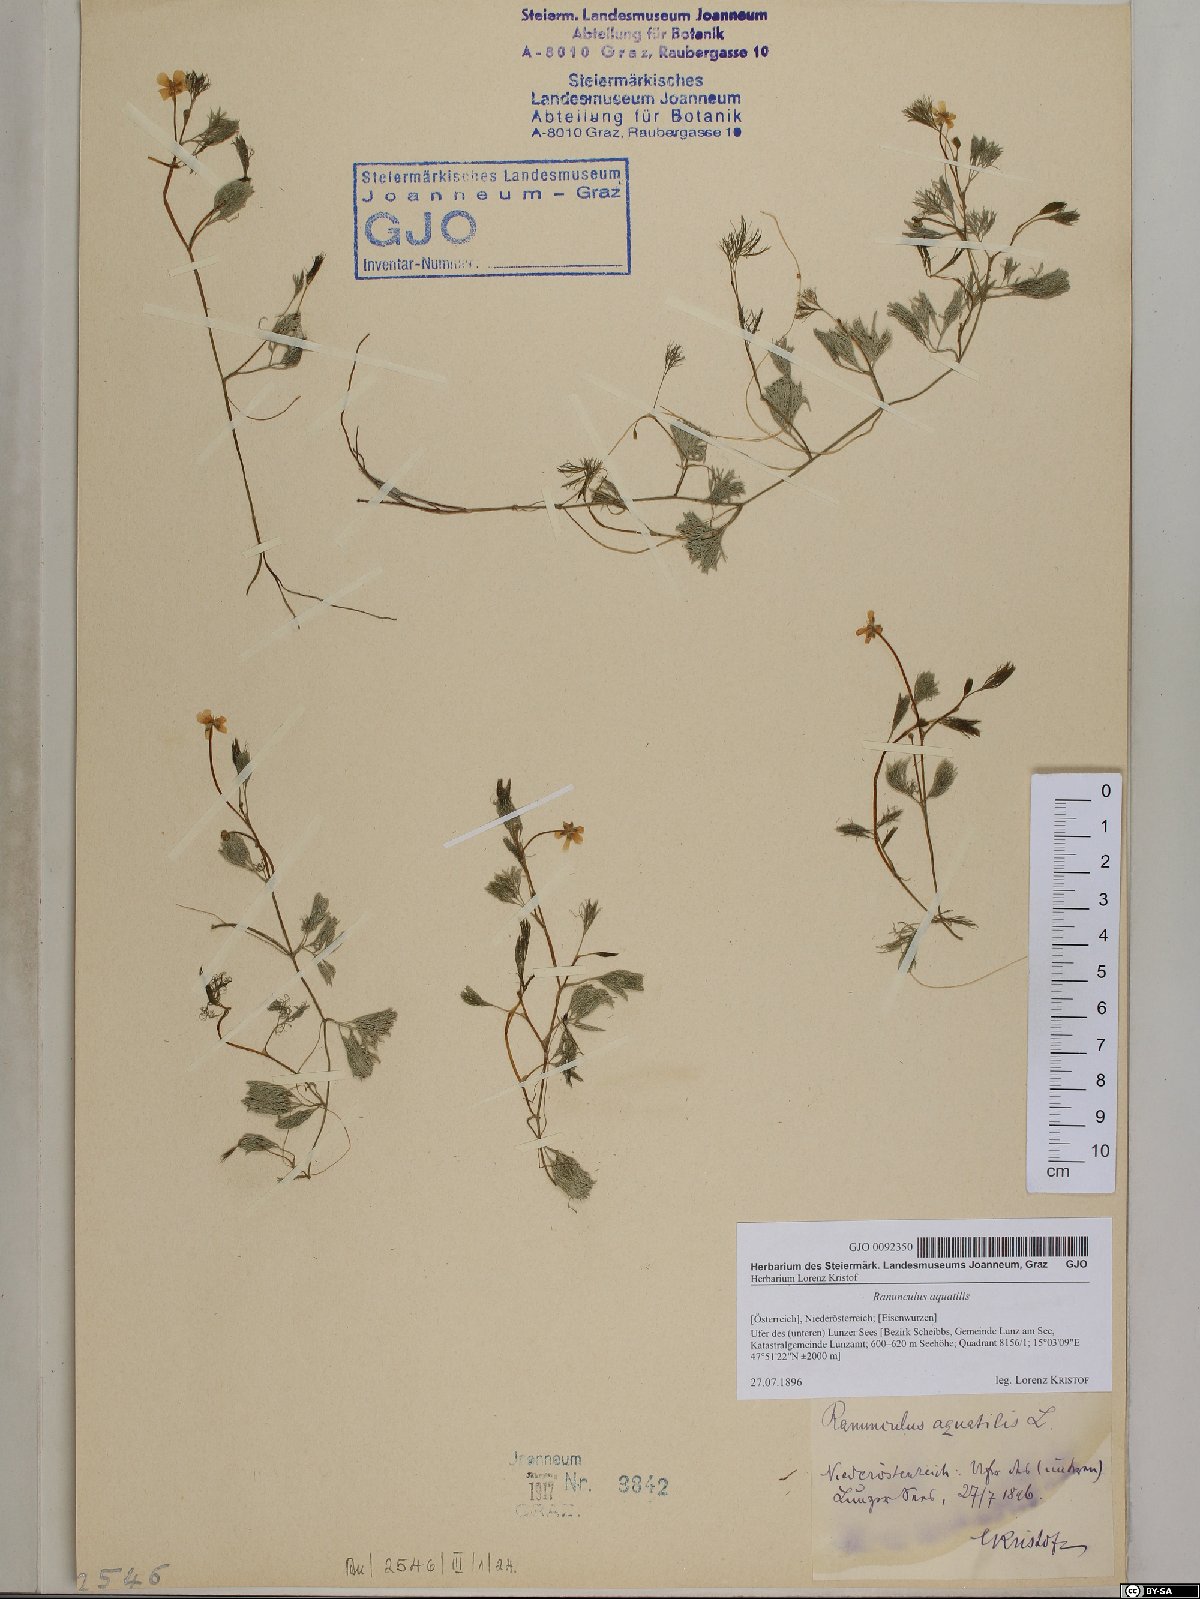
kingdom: Plantae
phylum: Tracheophyta
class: Magnoliopsida
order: Ranunculales
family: Ranunculaceae
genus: Ranunculus
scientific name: Ranunculus aquatilis
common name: Common water-crowfoot
